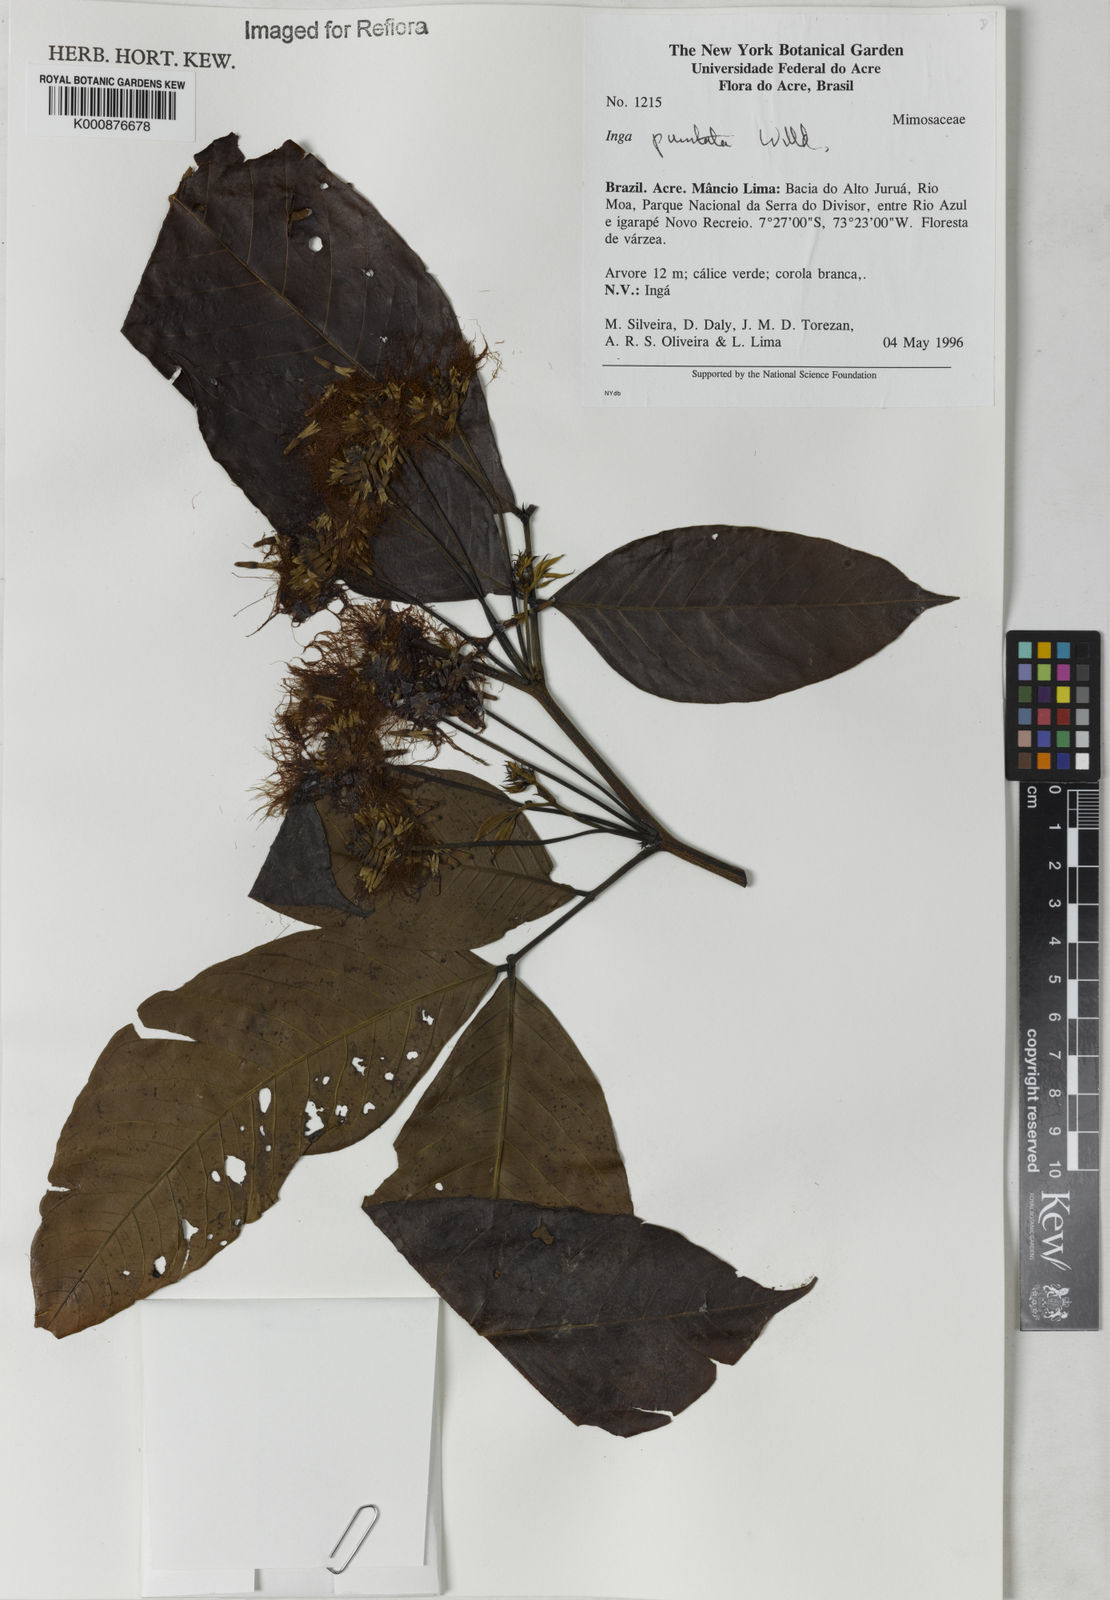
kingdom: Plantae
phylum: Tracheophyta
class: Magnoliopsida
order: Fabales
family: Fabaceae
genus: Inga
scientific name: Inga punctata
